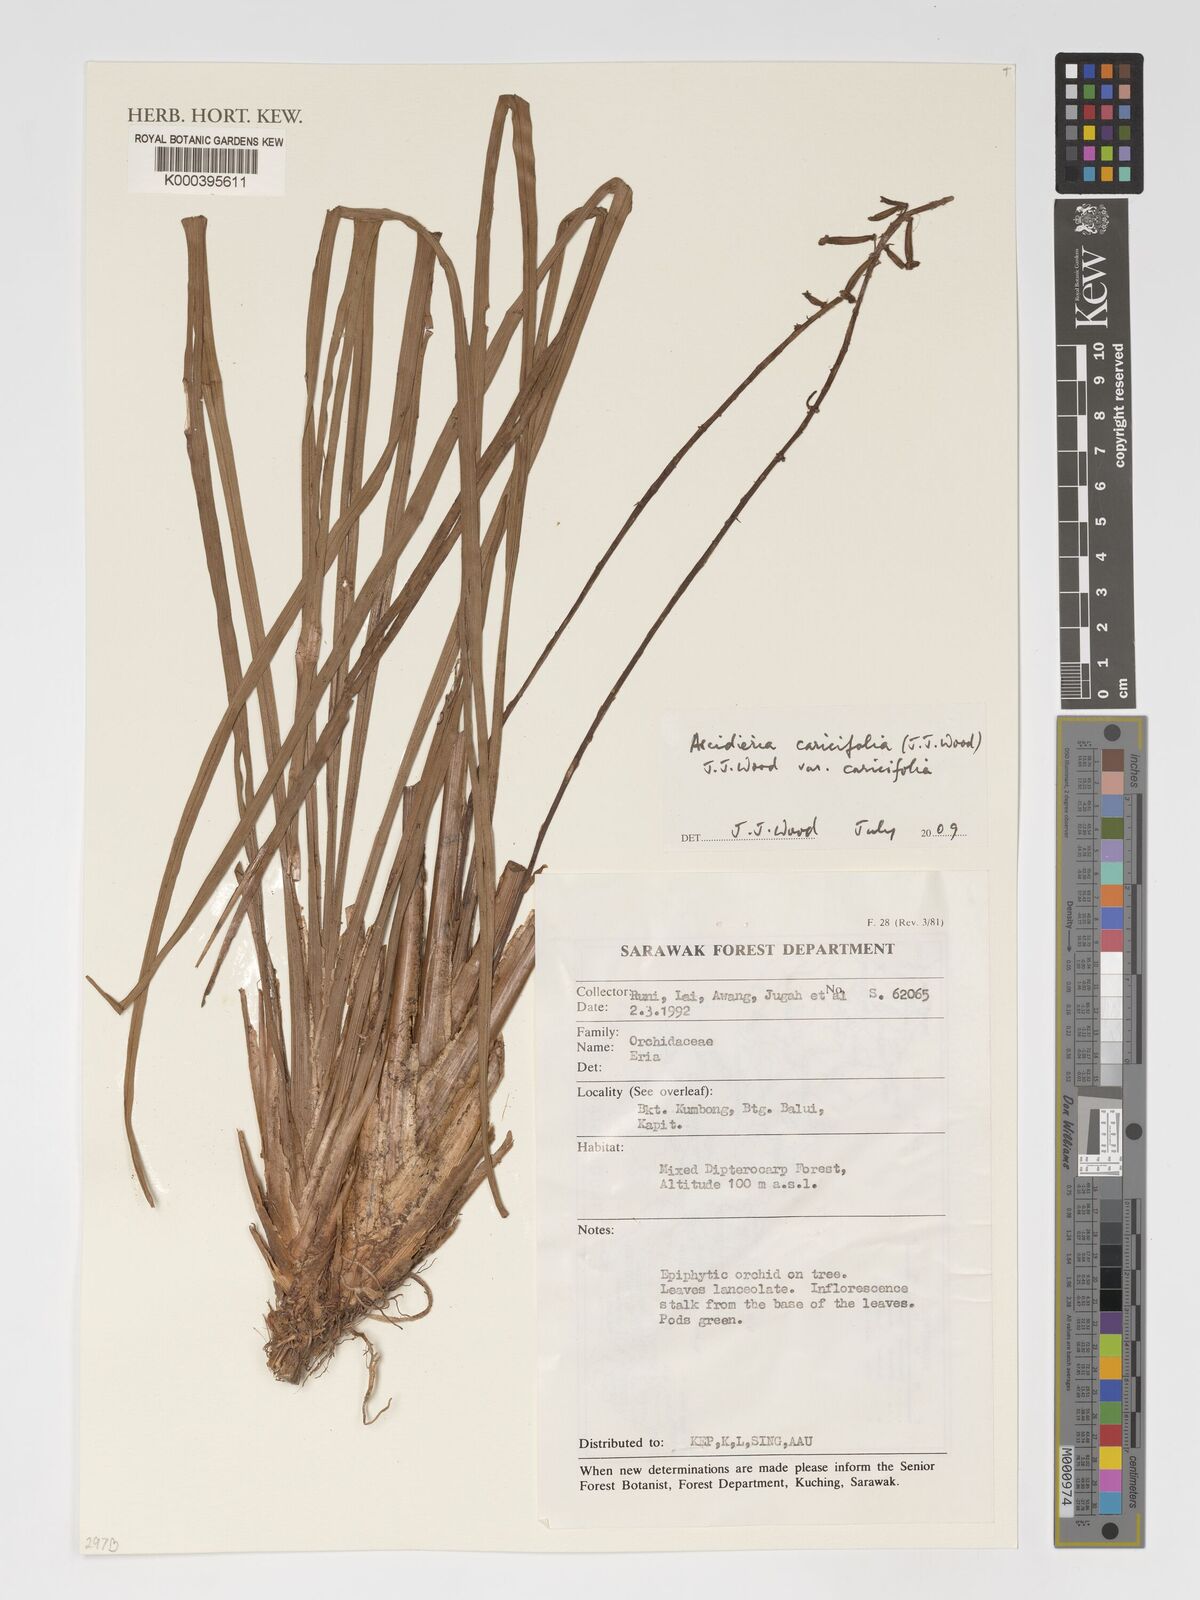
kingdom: Plantae
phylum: Tracheophyta
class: Liliopsida
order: Asparagales
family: Orchidaceae
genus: Cymboglossum
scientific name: Cymboglossum caricifolium
